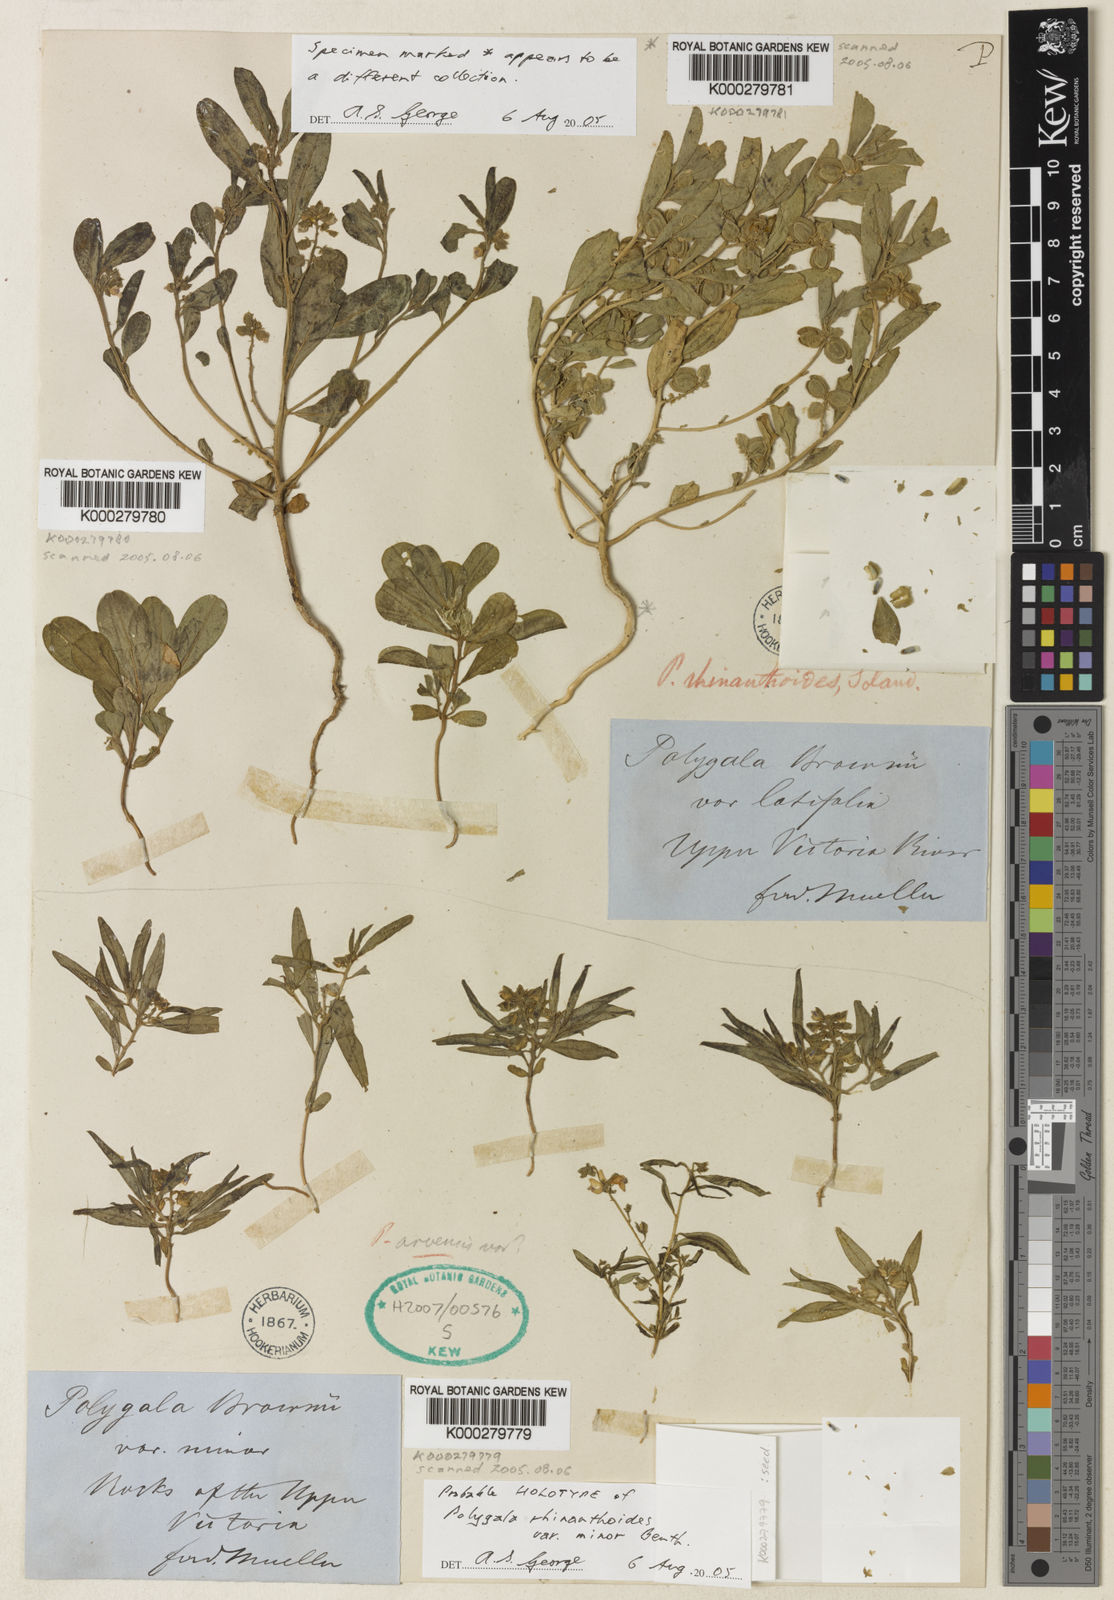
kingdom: Plantae
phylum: Tracheophyta
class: Magnoliopsida
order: Fabales
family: Polygalaceae
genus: Polygala
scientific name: Polygala rhinanthoides
